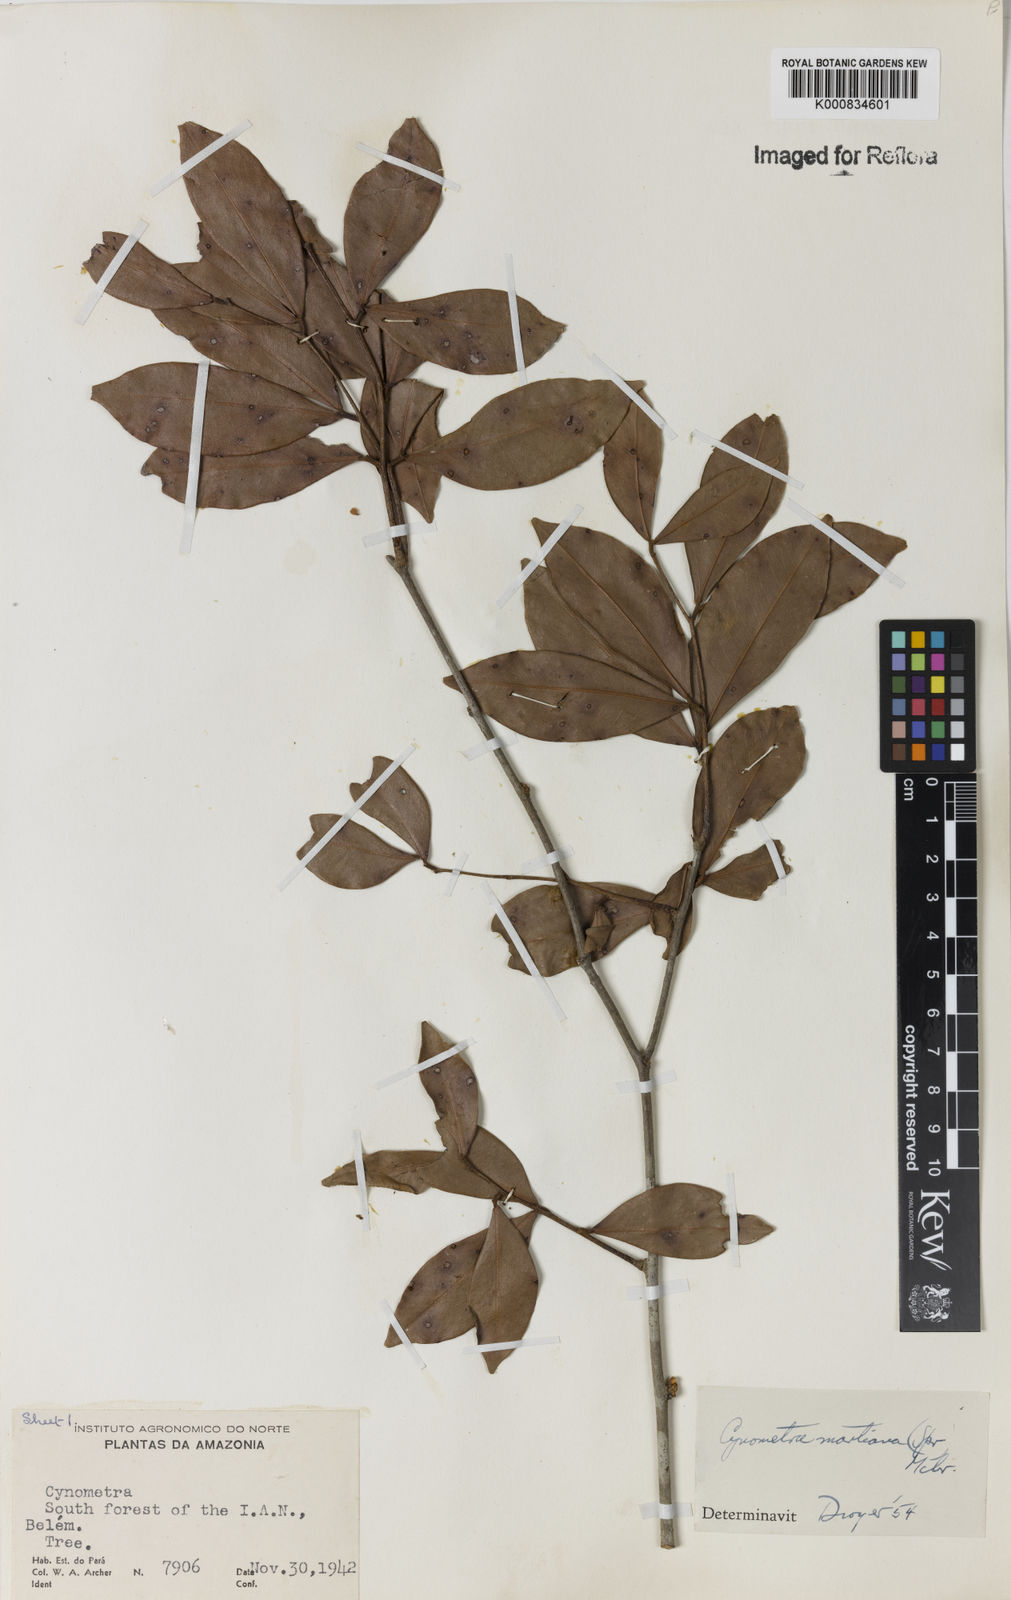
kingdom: Plantae
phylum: Tracheophyta
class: Magnoliopsida
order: Fabales
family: Fabaceae
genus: Cynometra
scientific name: Cynometra phaselocarpa
